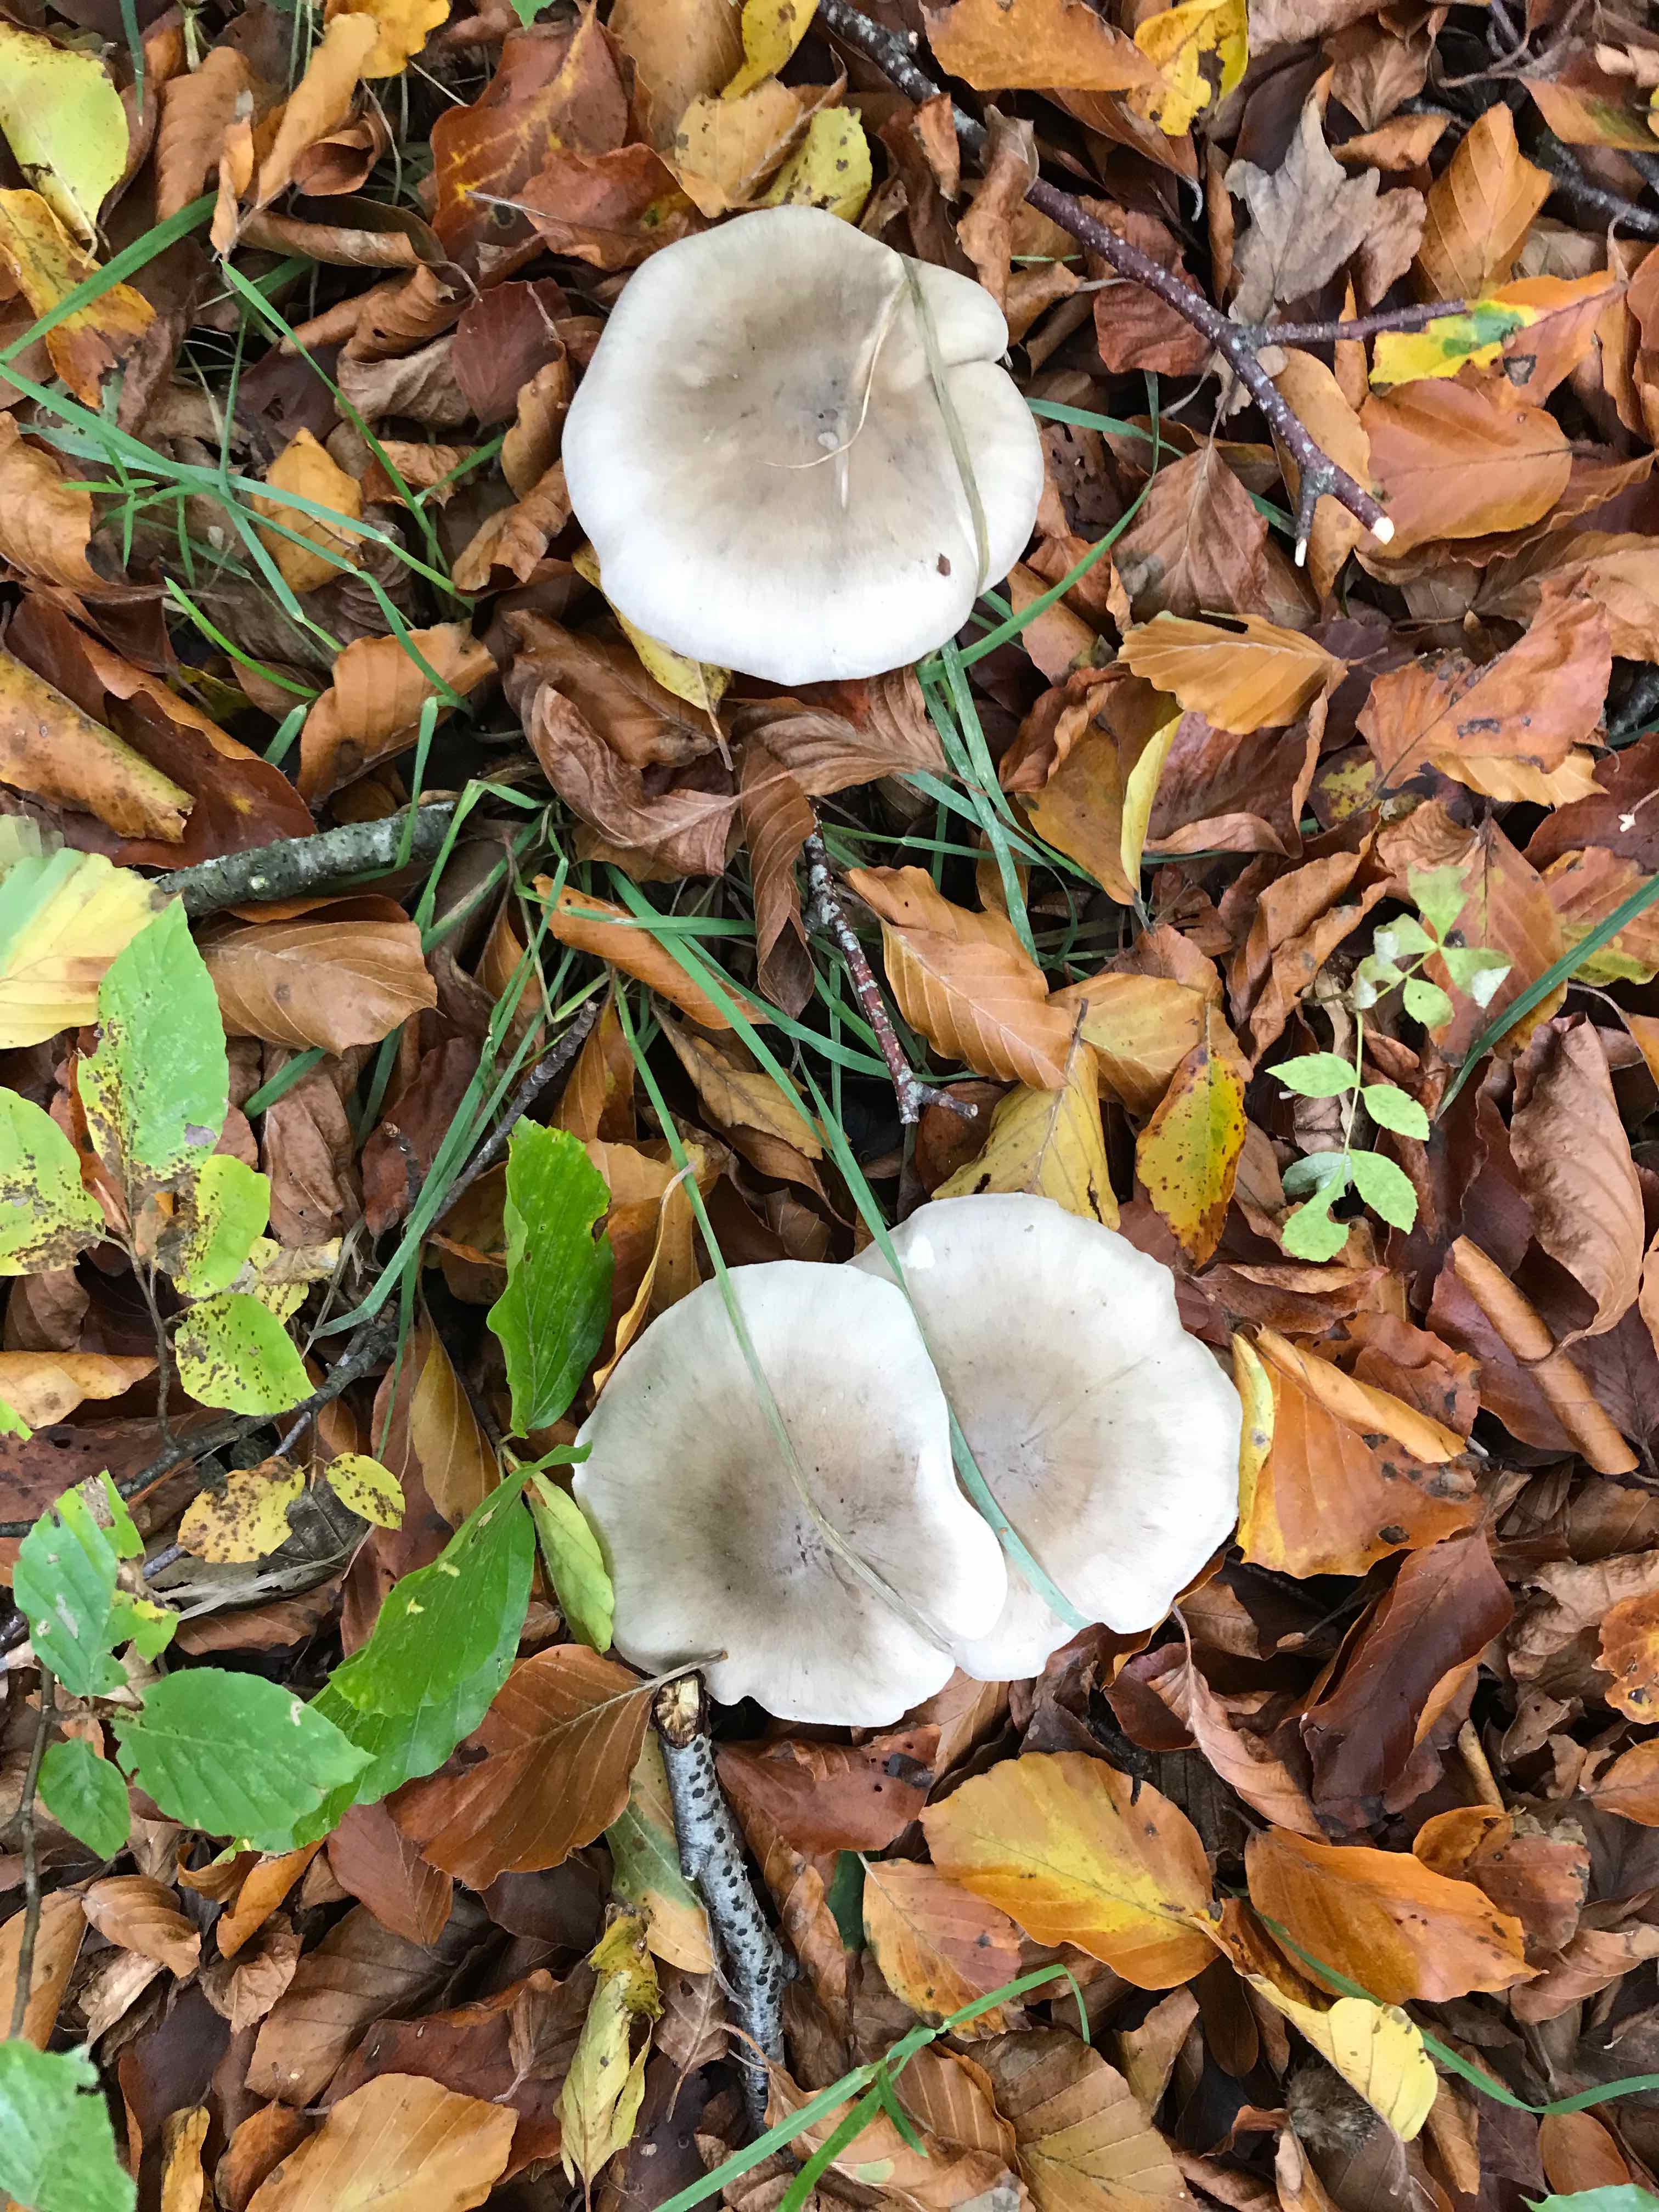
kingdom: Fungi
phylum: Basidiomycota
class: Agaricomycetes
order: Agaricales
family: Tricholomataceae
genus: Clitocybe
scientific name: Clitocybe nebularis
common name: tåge-tragthat
